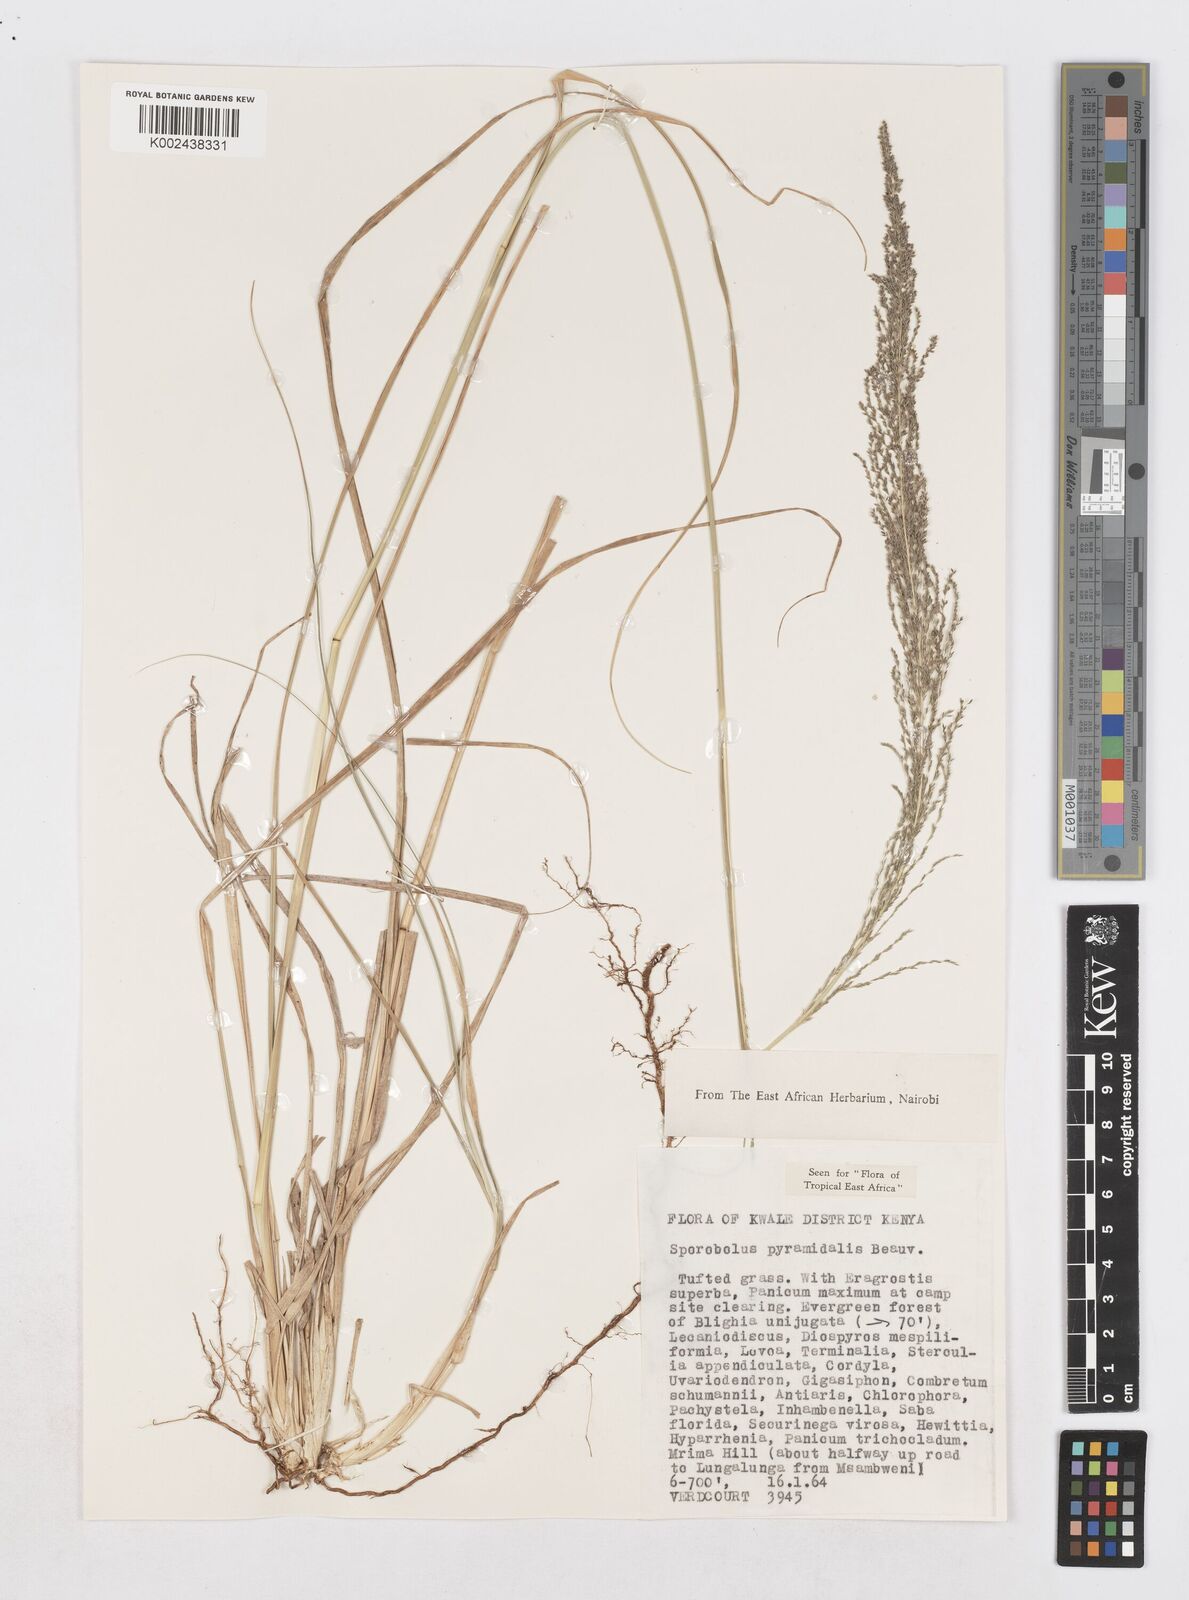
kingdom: Plantae
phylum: Tracheophyta
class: Liliopsida
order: Poales
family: Poaceae
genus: Sporobolus
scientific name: Sporobolus pyramidalis
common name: West indian dropseed
